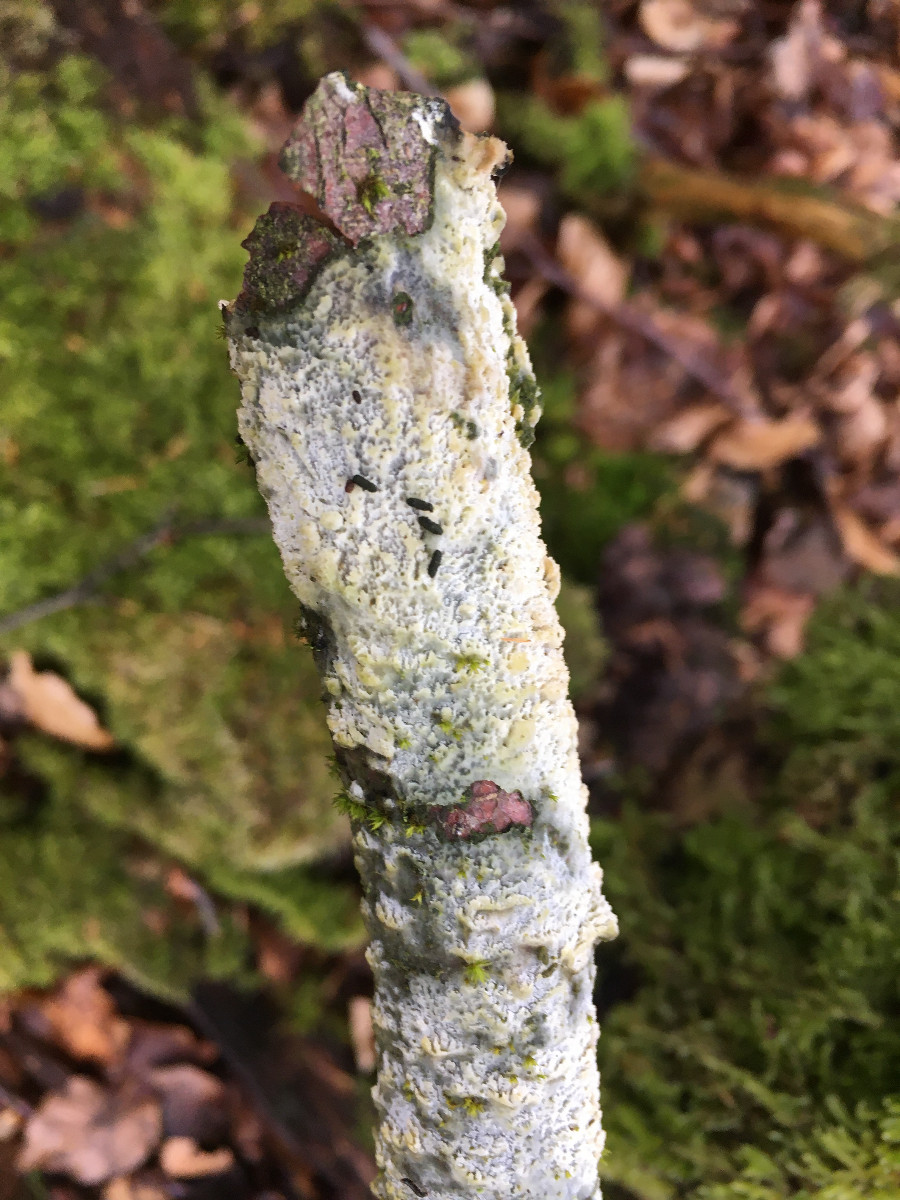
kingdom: Fungi
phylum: Basidiomycota
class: Agaricomycetes
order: Hymenochaetales
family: Schizoporaceae
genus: Xylodon
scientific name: Xylodon
